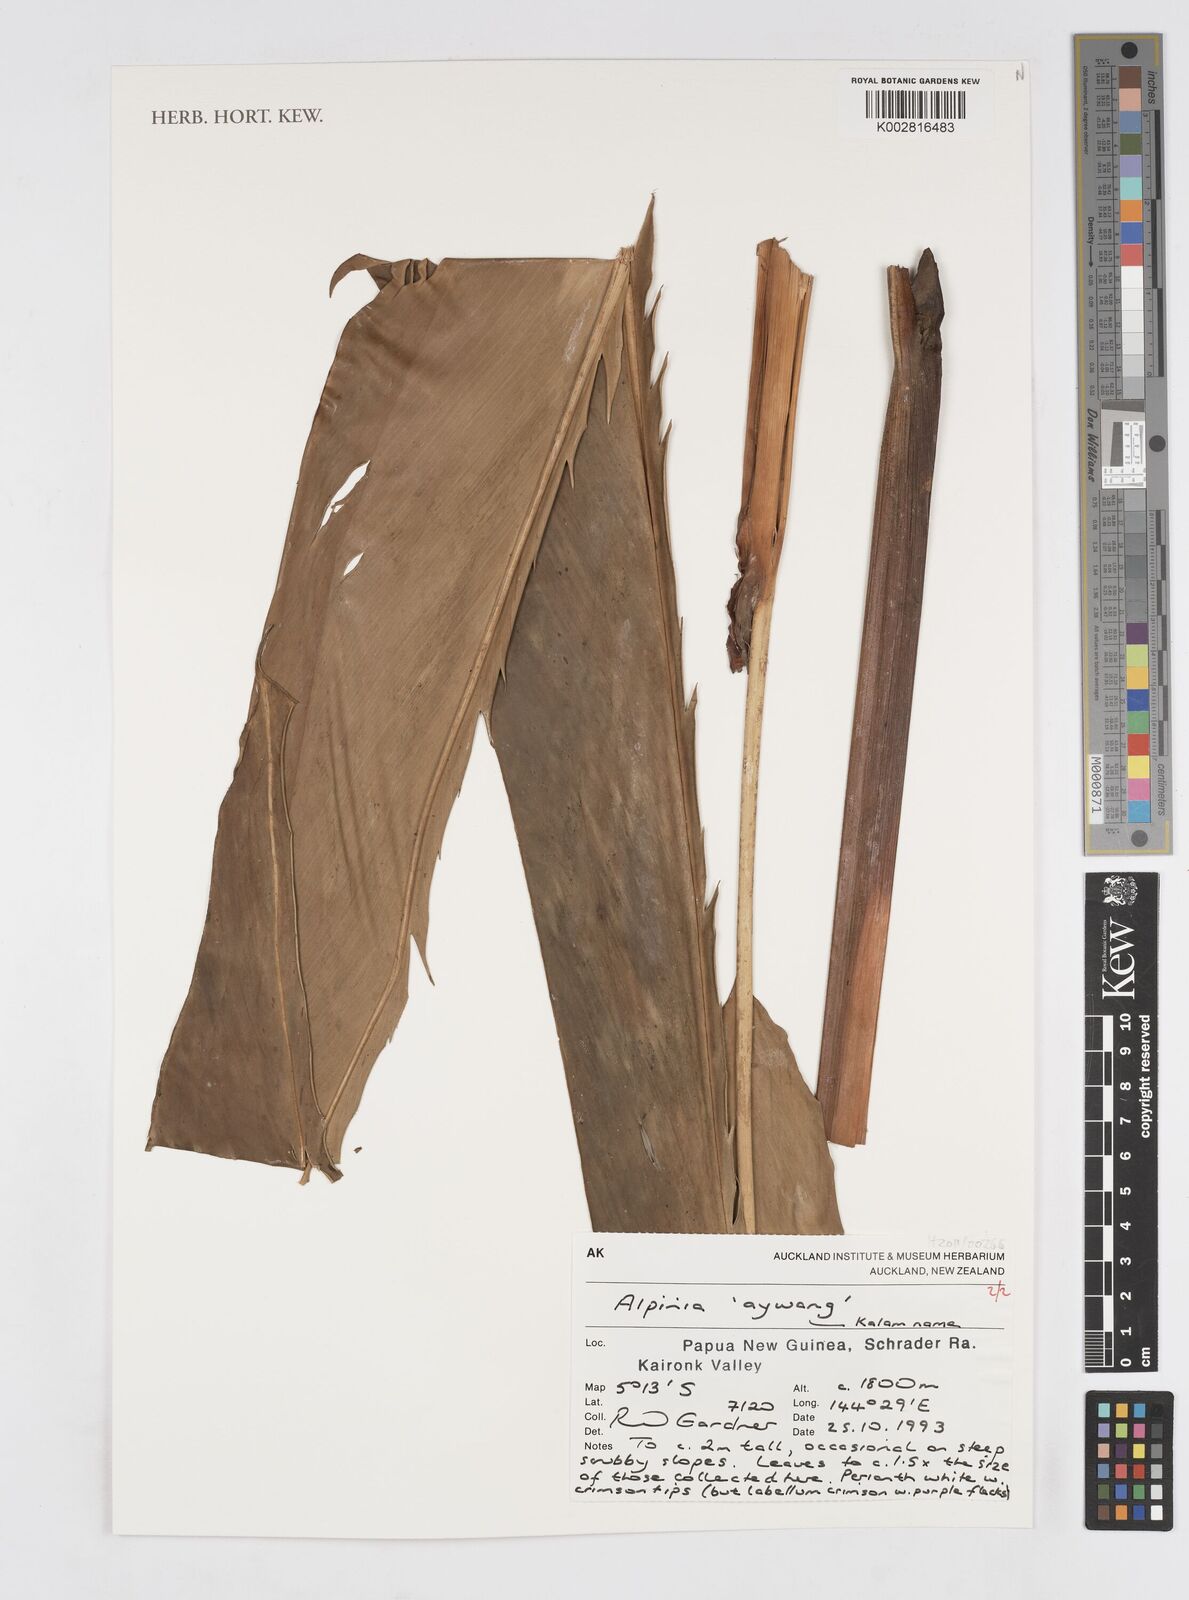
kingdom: Plantae
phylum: Tracheophyta
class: Liliopsida
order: Zingiberales
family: Zingiberaceae
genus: Alpinia
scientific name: Alpinia
